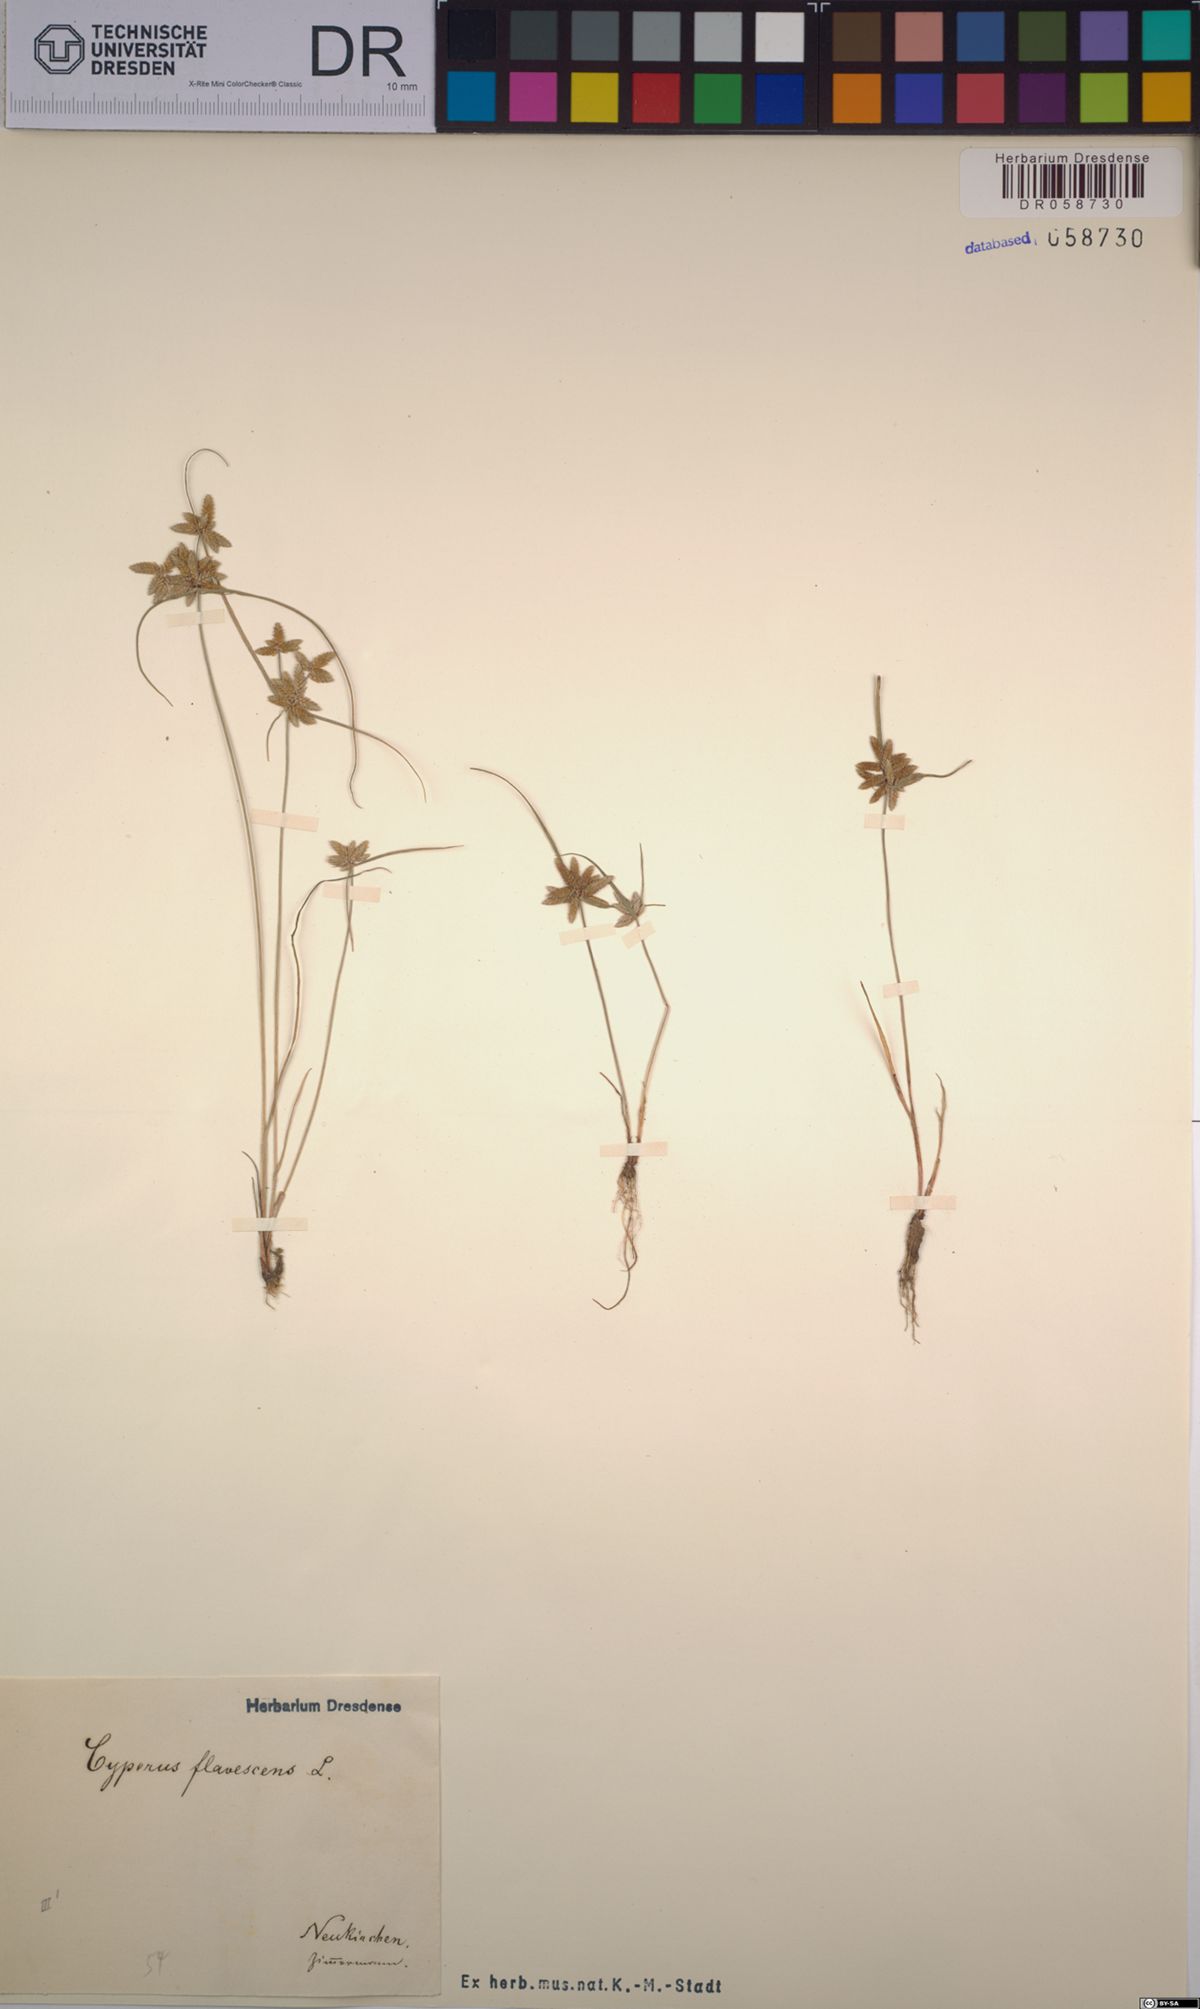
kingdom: Plantae
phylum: Tracheophyta
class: Liliopsida
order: Poales
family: Cyperaceae
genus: Cyperus
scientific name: Cyperus flavescens
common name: Yellow galingale
